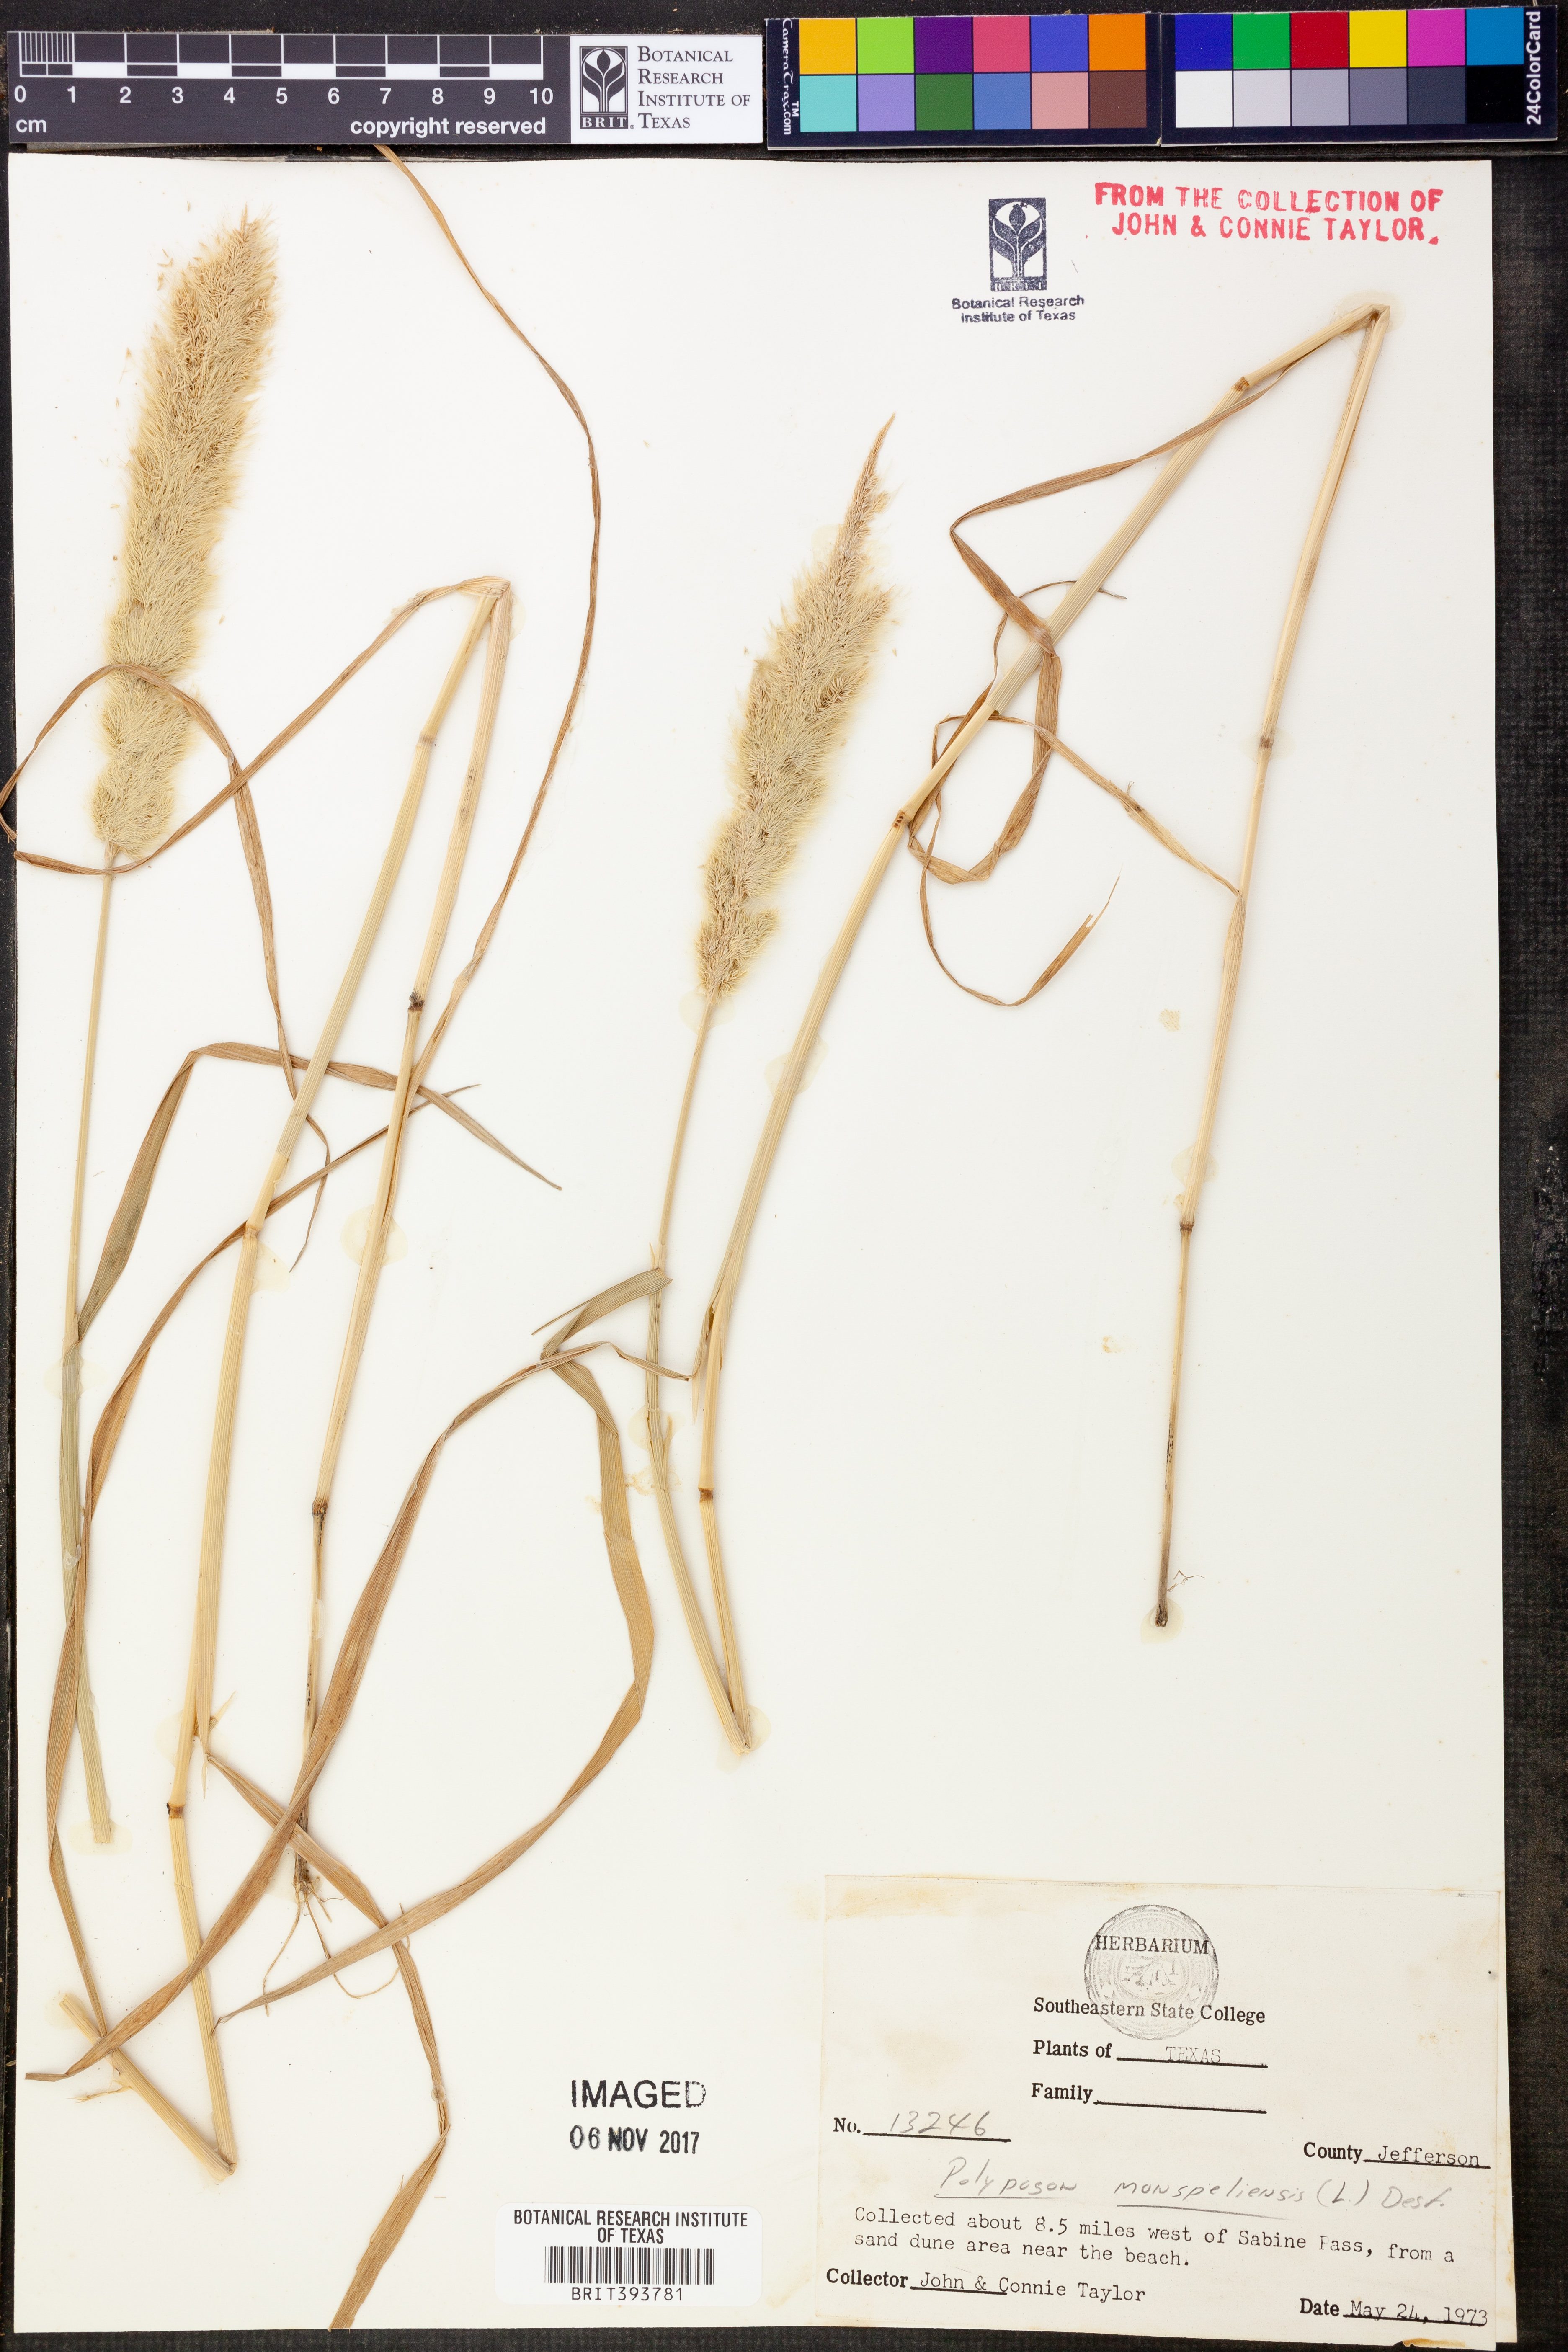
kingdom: Plantae
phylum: Tracheophyta
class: Liliopsida
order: Poales
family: Poaceae
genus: Polypogon
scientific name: Polypogon monspeliensis
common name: Annual rabbitsfoot grass
